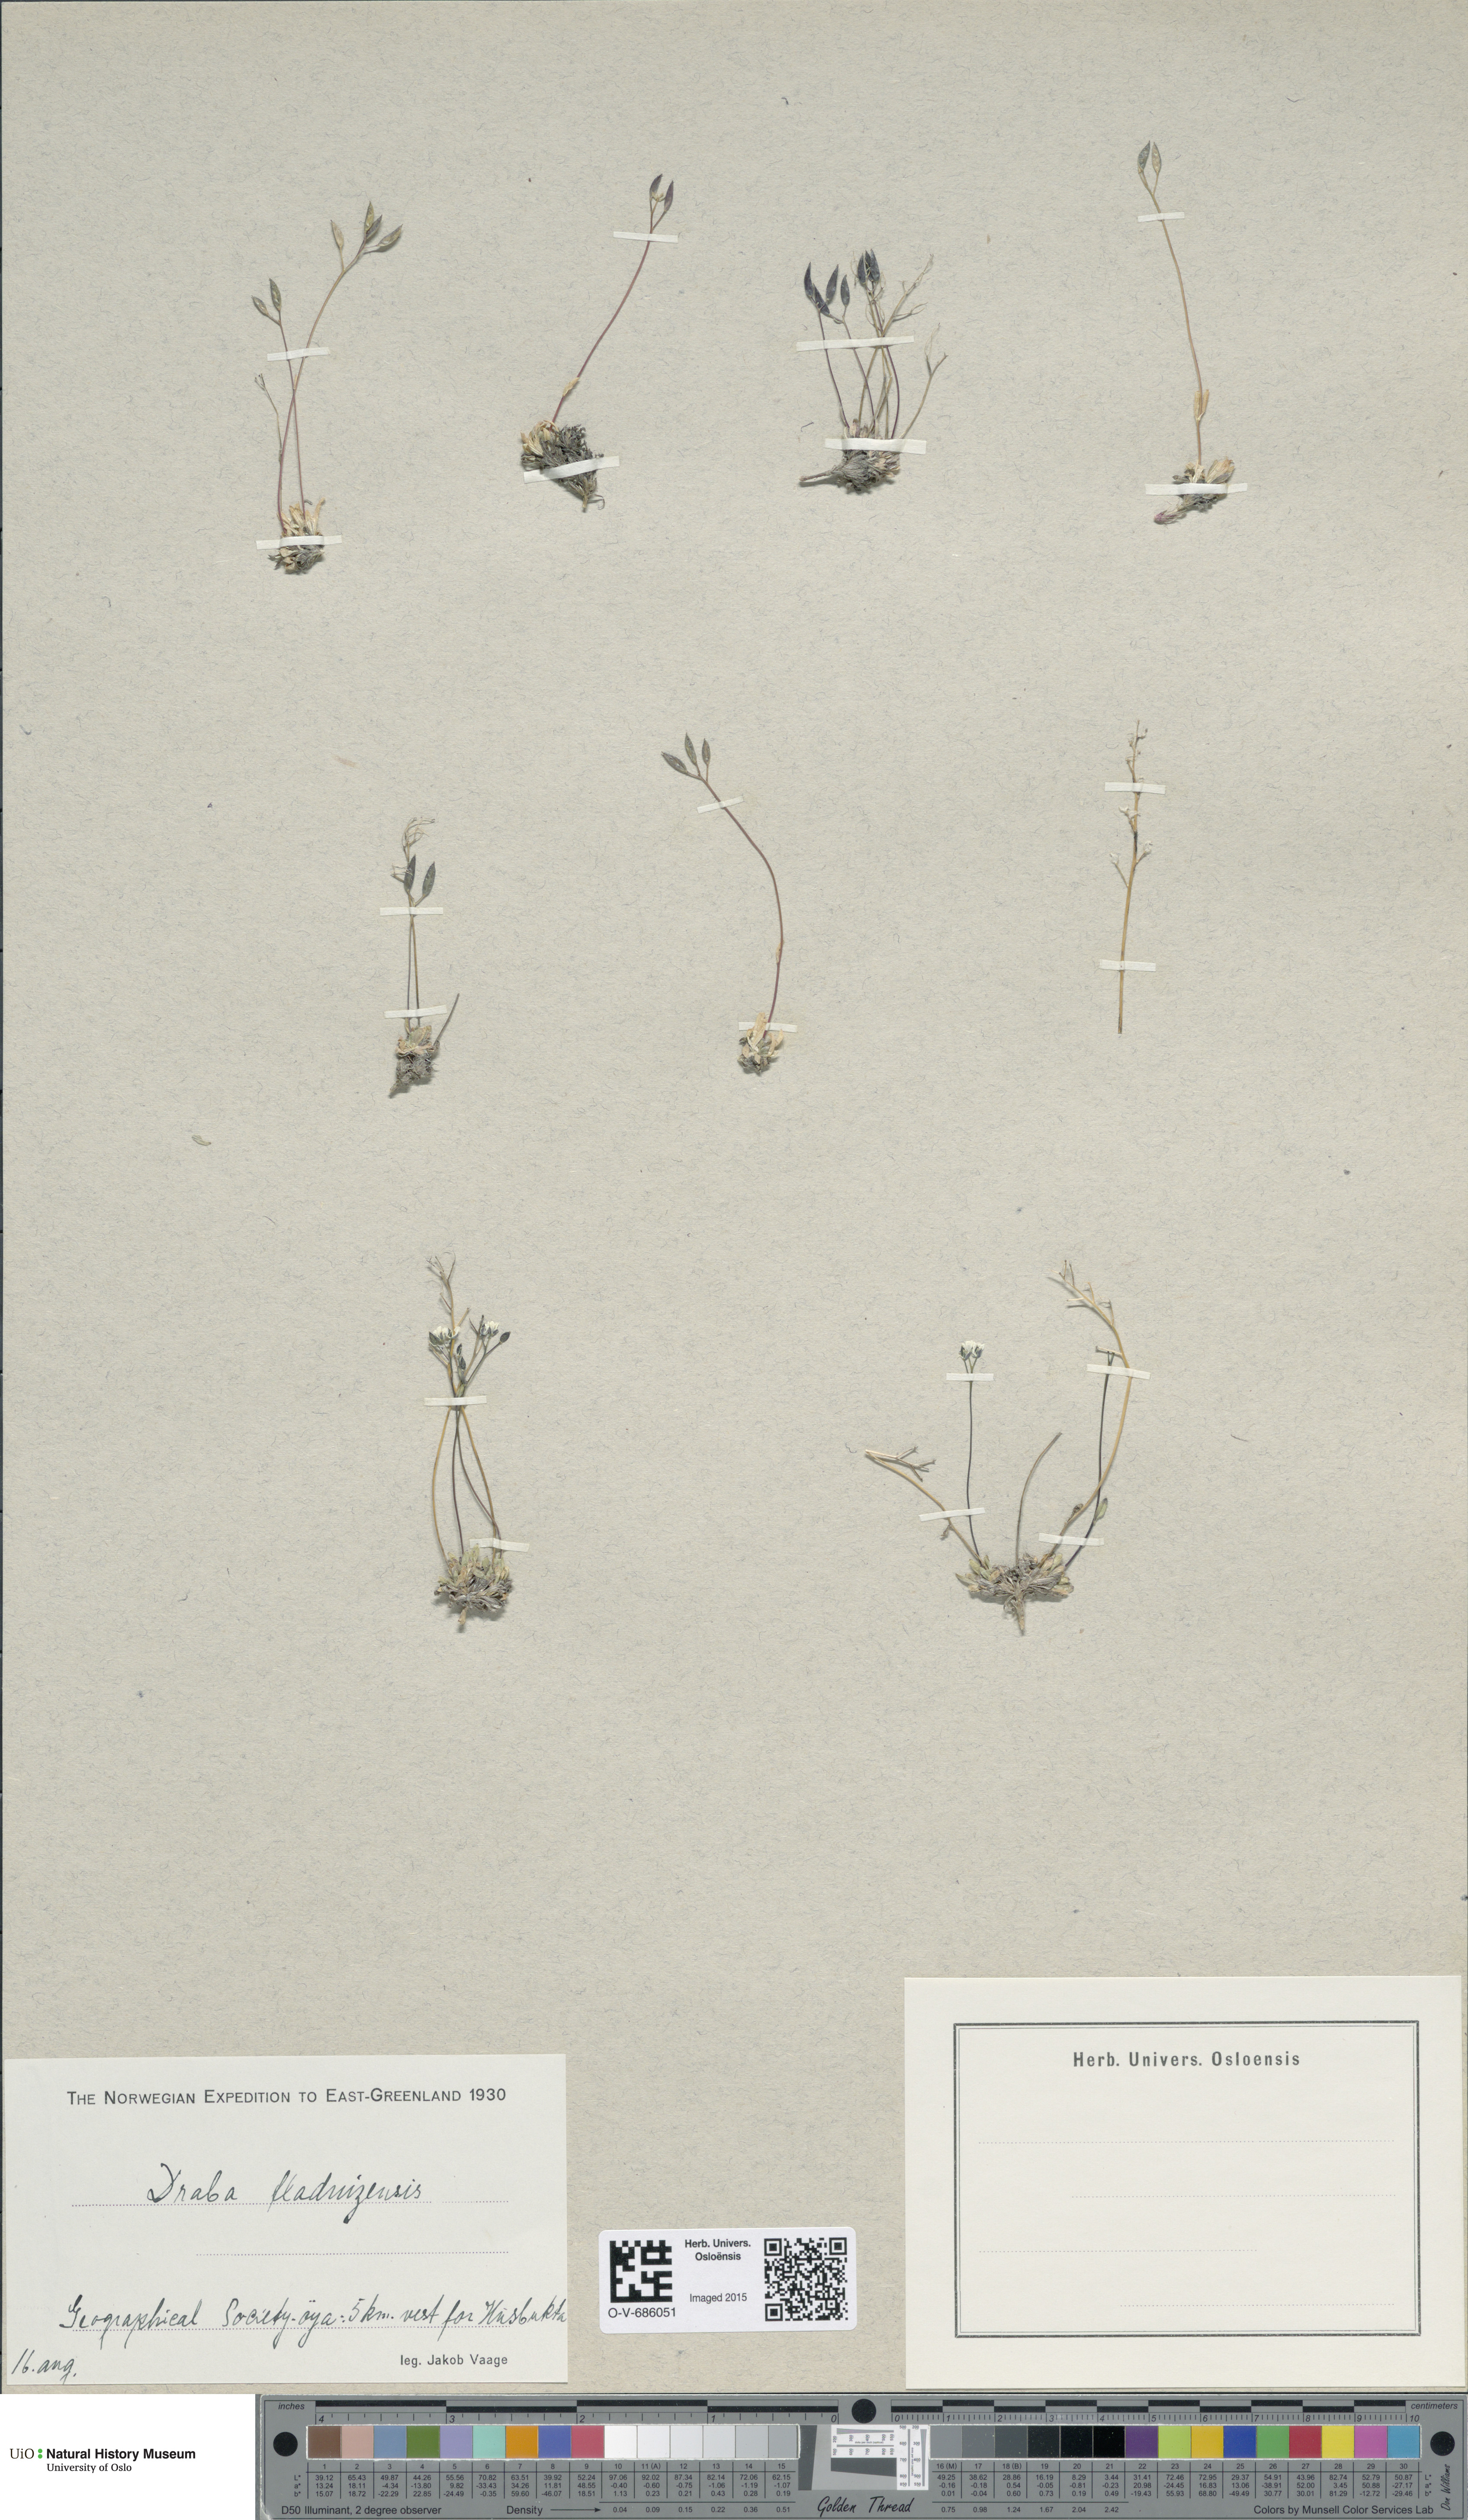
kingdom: Plantae
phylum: Tracheophyta
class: Magnoliopsida
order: Brassicales
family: Brassicaceae
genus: Draba
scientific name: Draba fladnizensis
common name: Austrian draba
